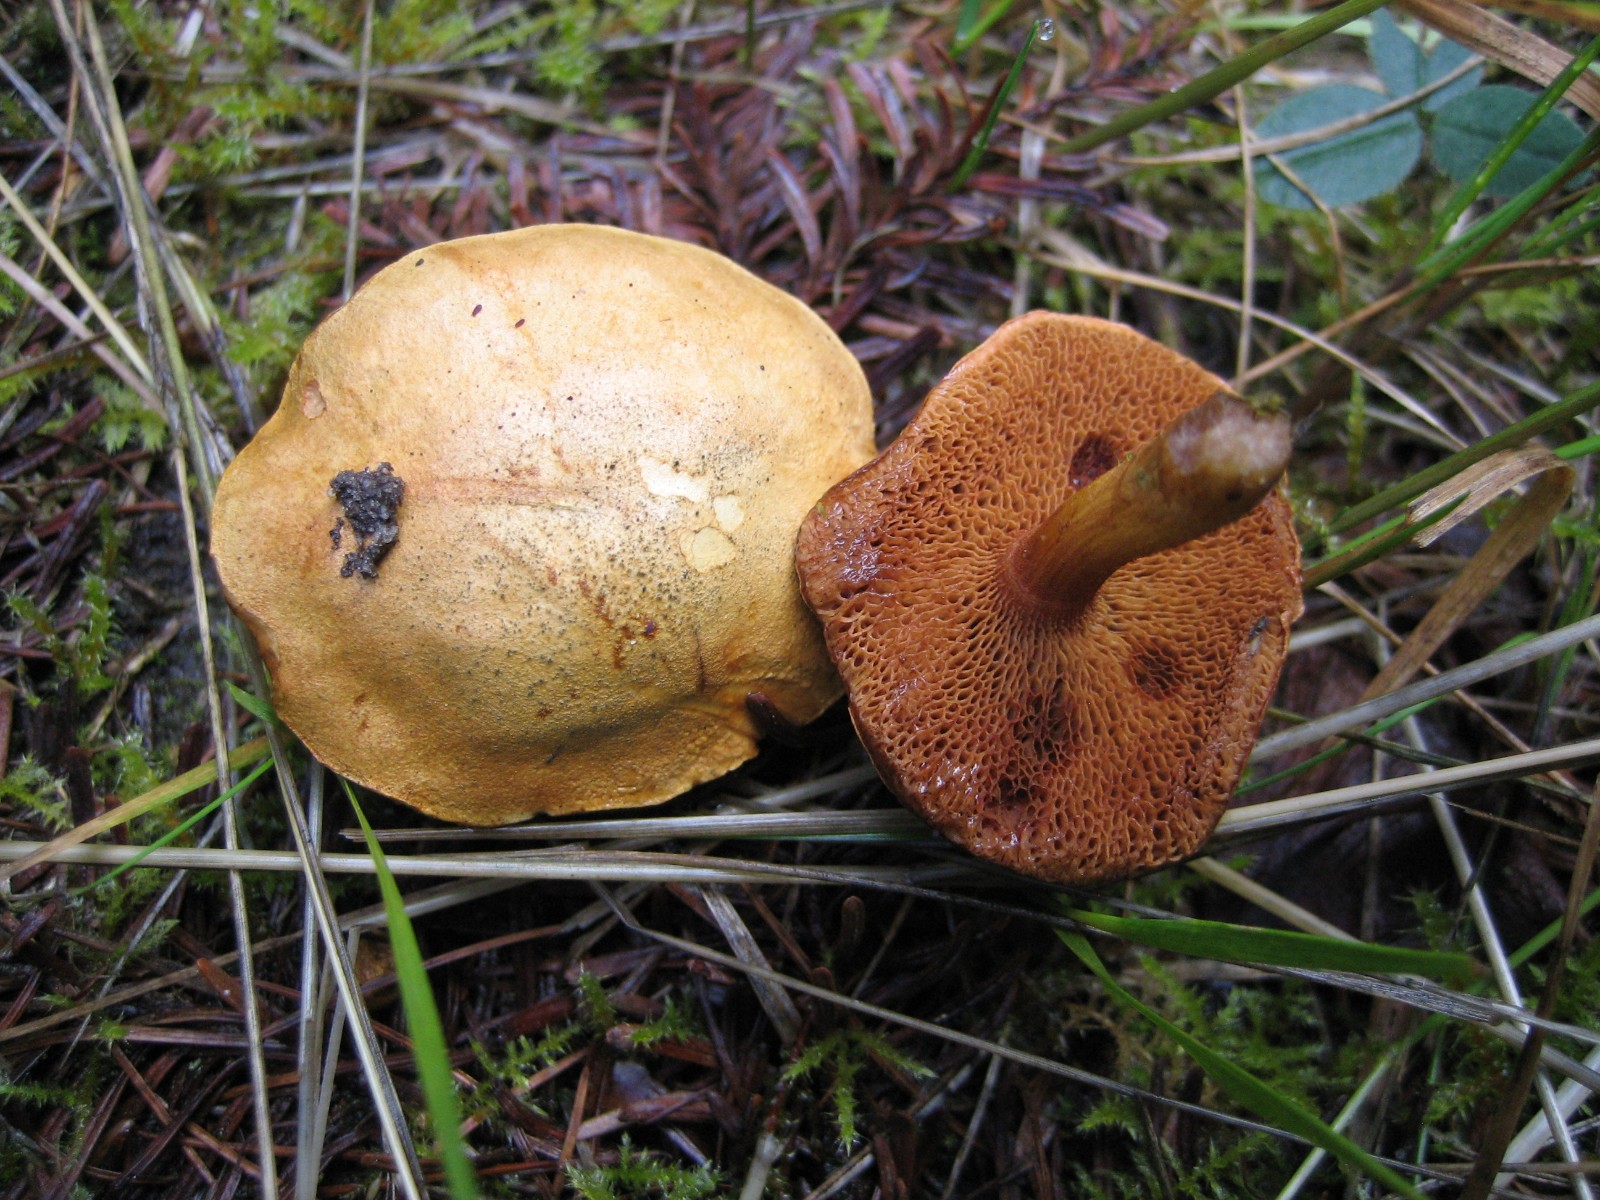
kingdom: Fungi
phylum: Basidiomycota
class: Agaricomycetes
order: Boletales
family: Boletaceae
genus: Chalciporus
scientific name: Chalciporus piperatus
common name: peberrørhat
